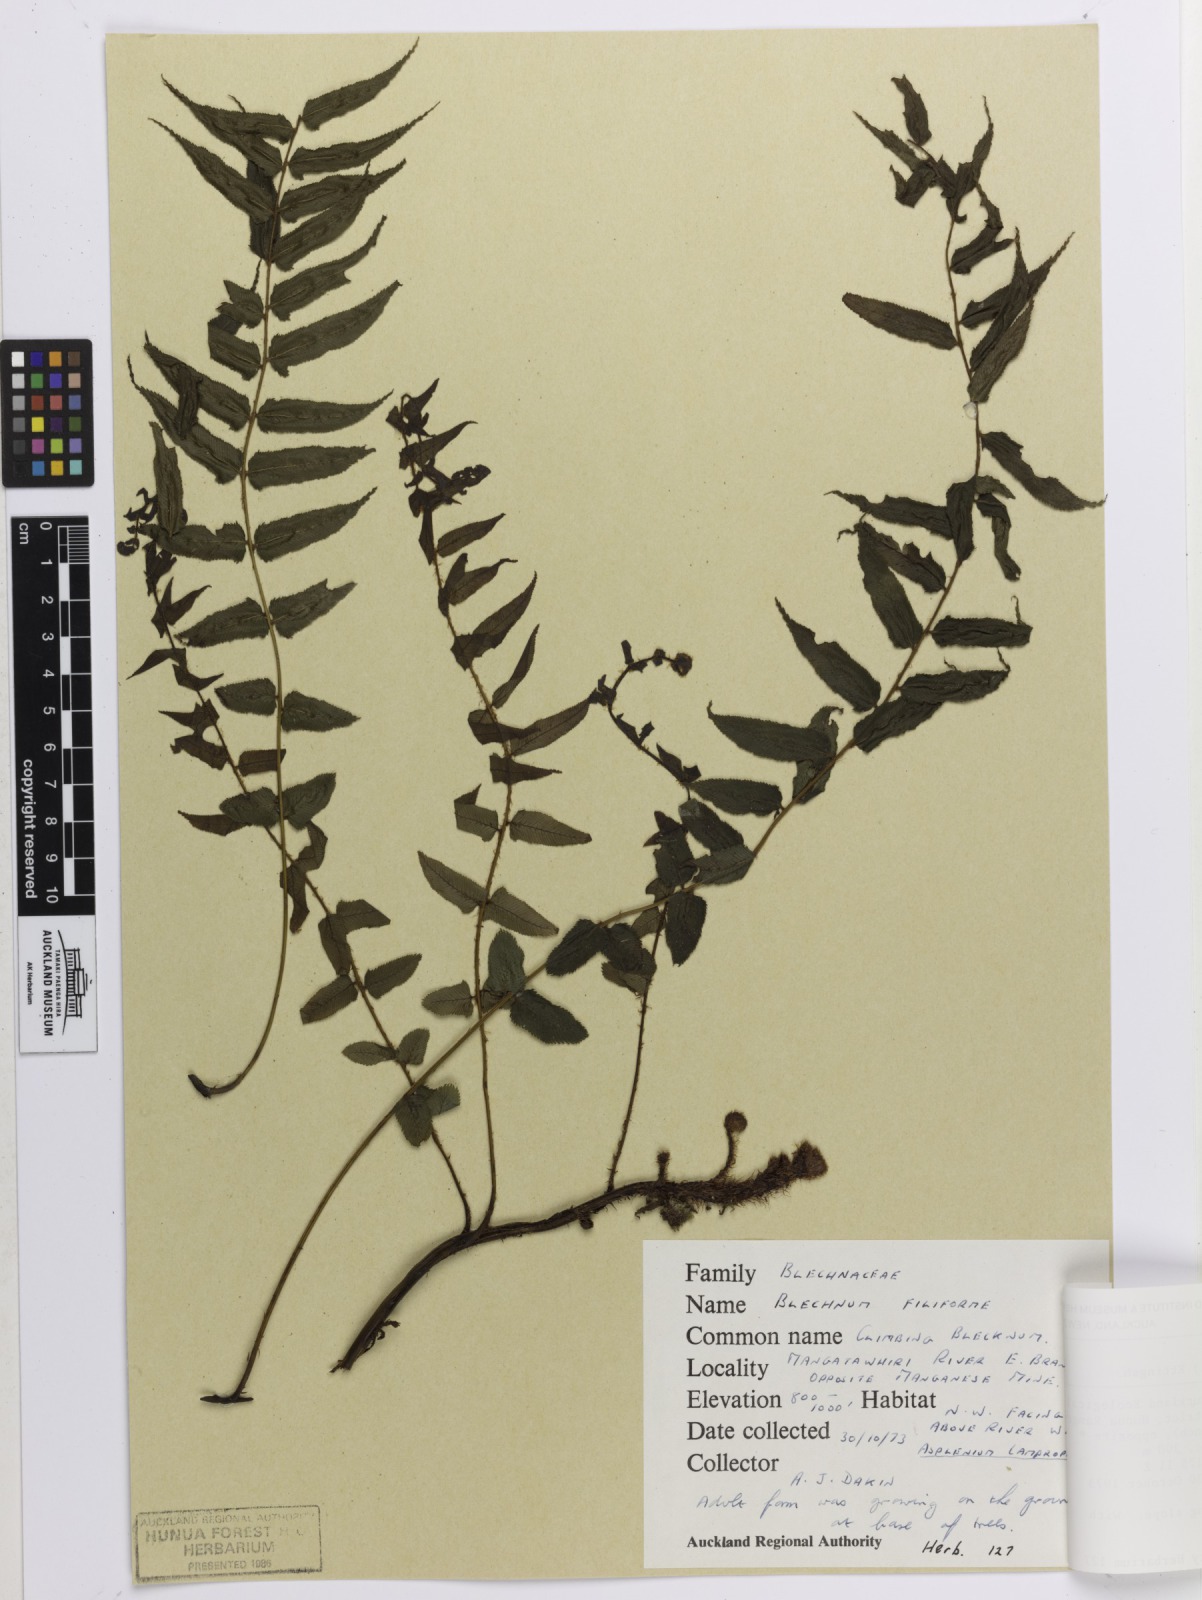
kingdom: Plantae
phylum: Tracheophyta
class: Polypodiopsida
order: Polypodiales
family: Blechnaceae
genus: Icarus
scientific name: Icarus filiformis
